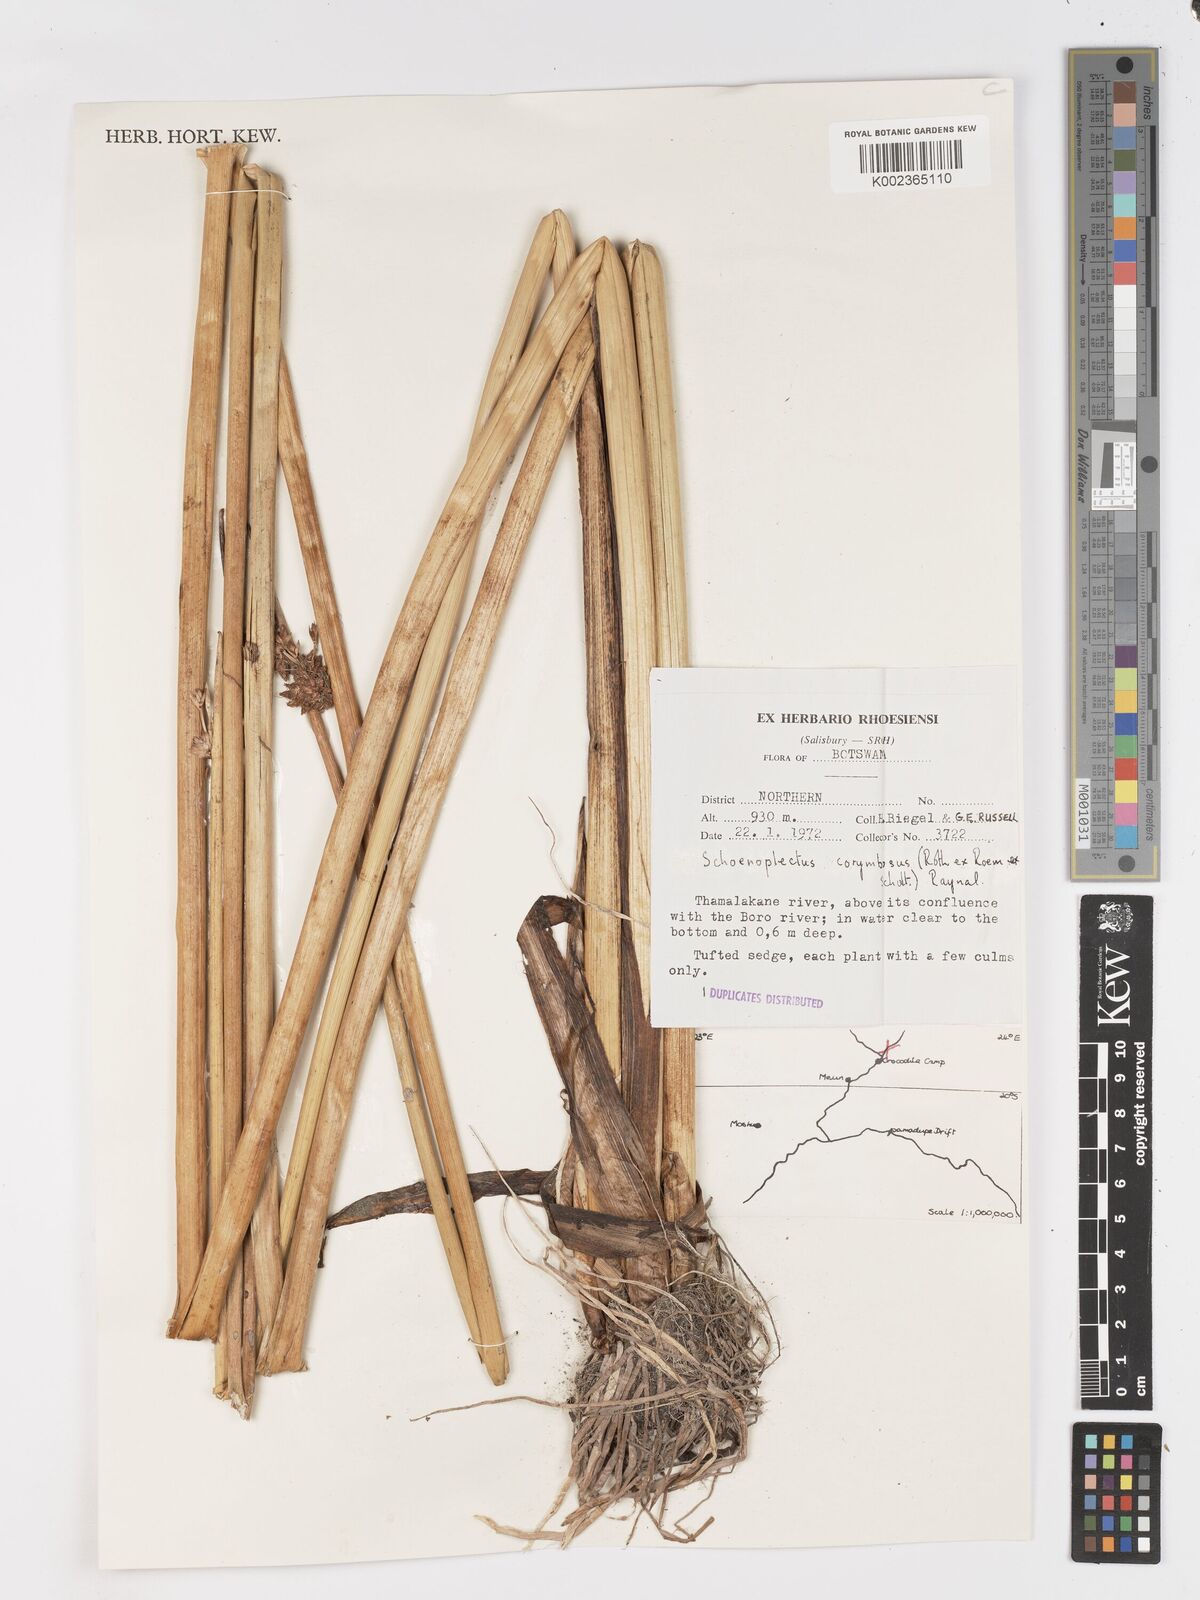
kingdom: Plantae
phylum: Tracheophyta
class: Liliopsida
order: Poales
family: Cyperaceae
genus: Schoenoplectiella
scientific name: Schoenoplectiella brachyceras
